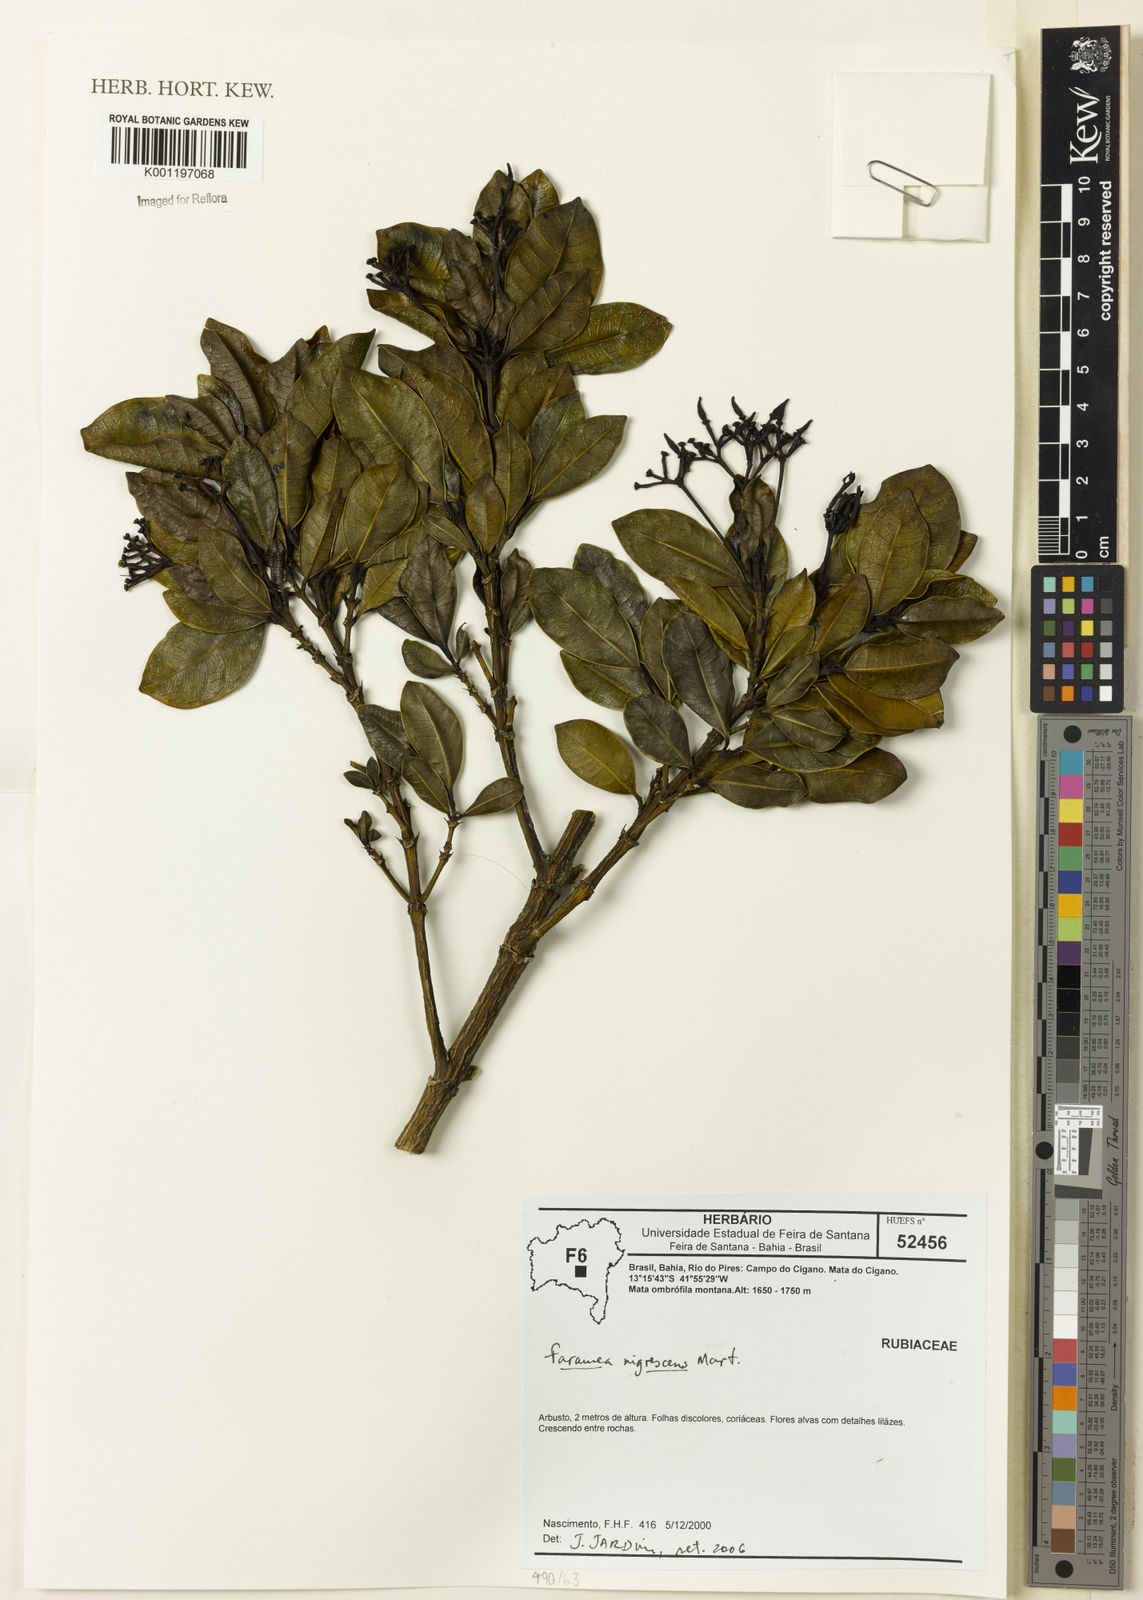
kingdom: Plantae
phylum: Tracheophyta
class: Magnoliopsida
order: Gentianales
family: Rubiaceae
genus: Faramea
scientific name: Faramea nigrescens
